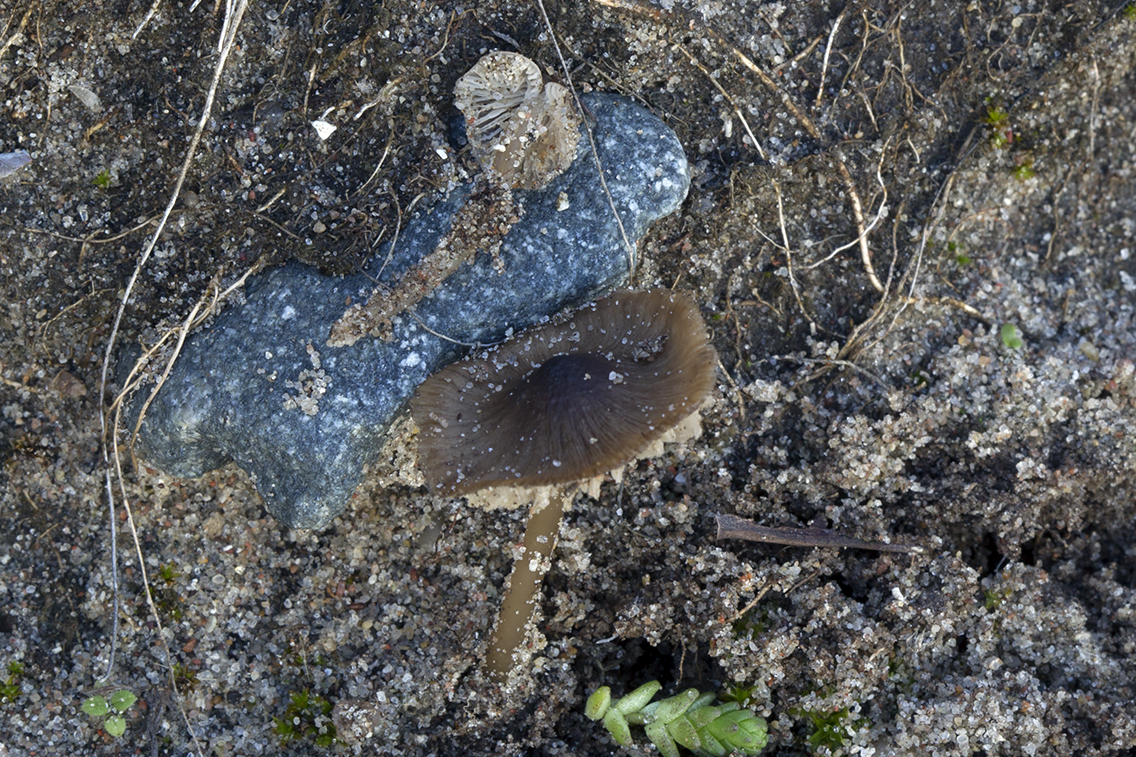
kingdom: Fungi
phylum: Basidiomycota
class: Agaricomycetes
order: Agaricales
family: Porotheleaceae
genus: Phloeomana
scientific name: Phloeomana atropapillata
